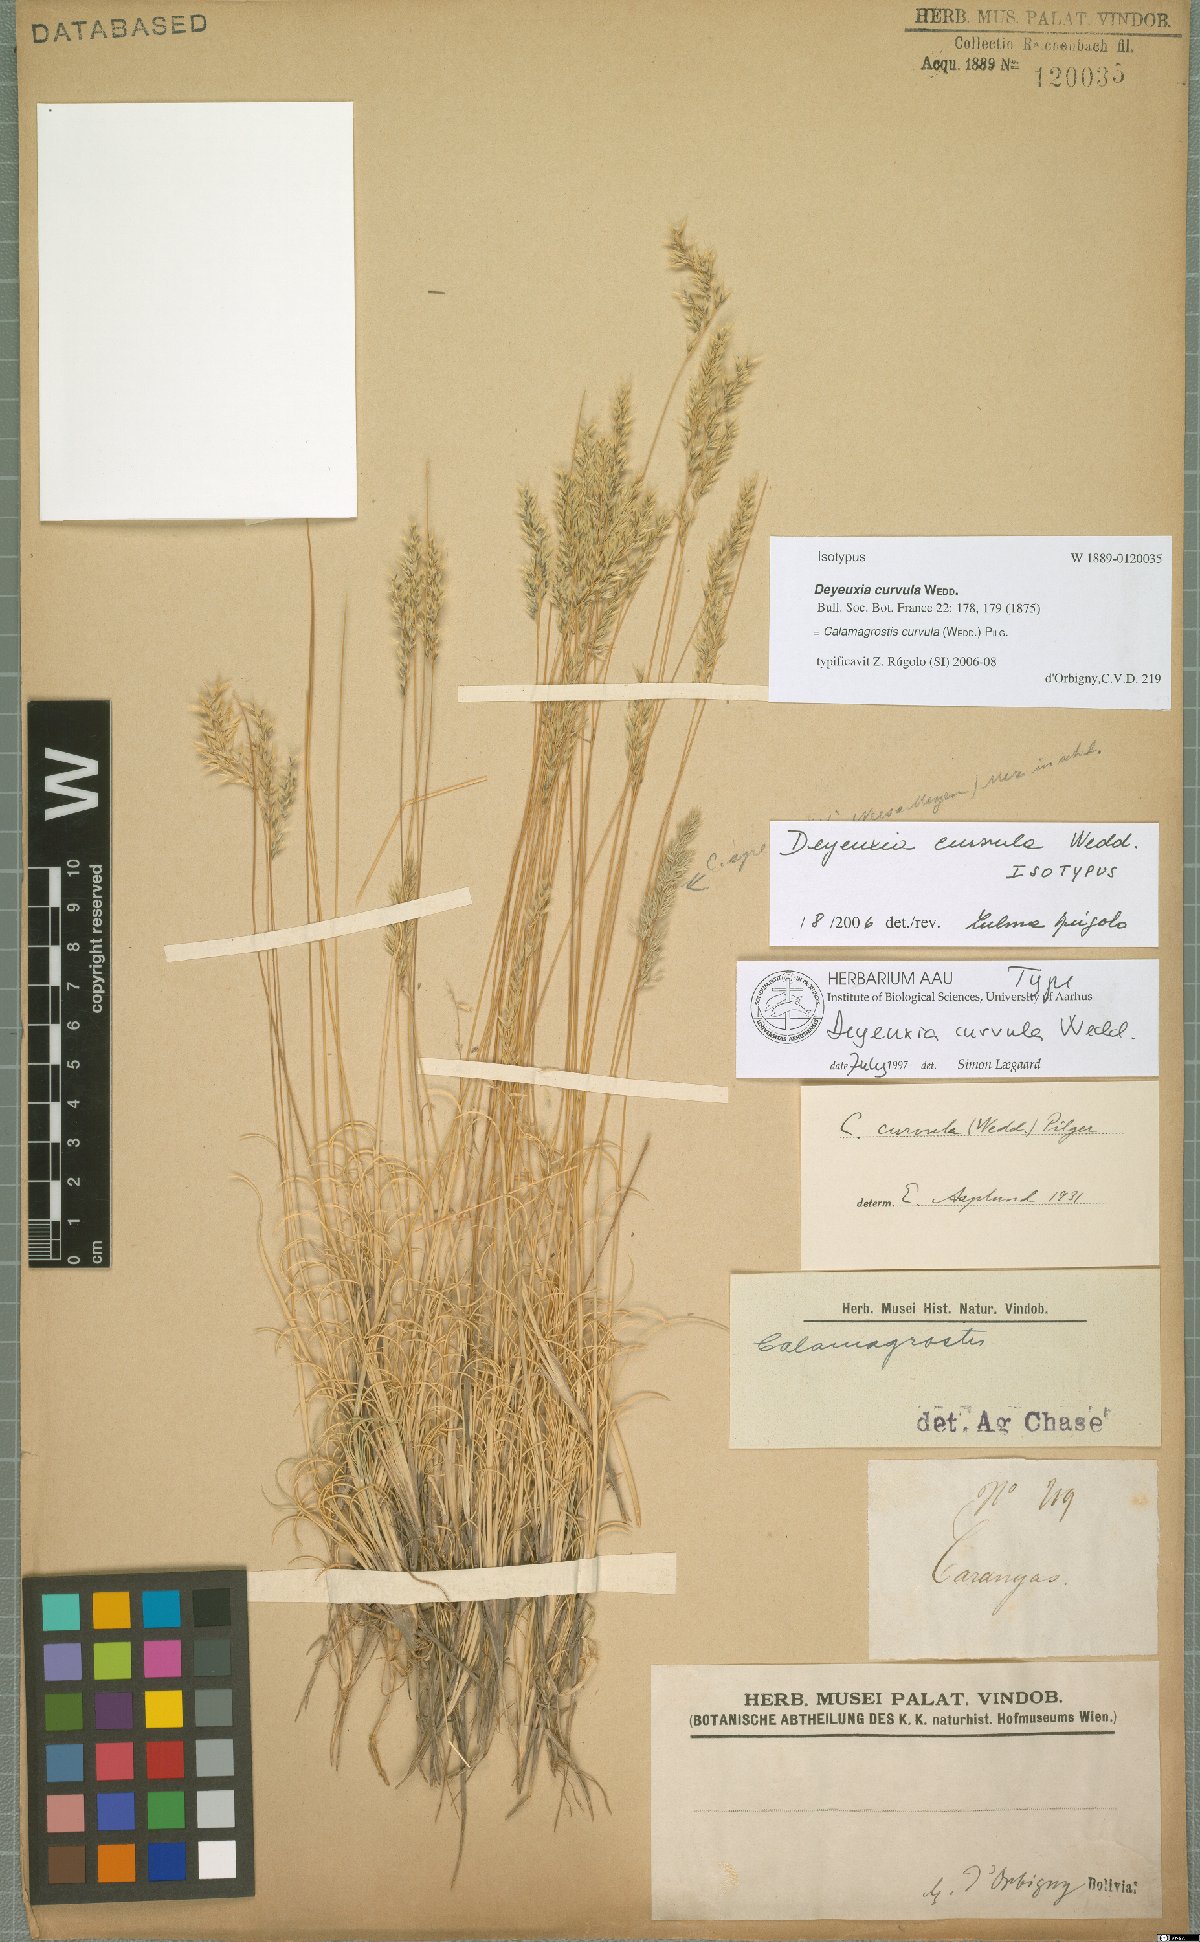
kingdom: Plantae
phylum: Tracheophyta
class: Liliopsida
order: Poales
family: Poaceae
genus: Cinnagrostis
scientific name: Cinnagrostis curvula
